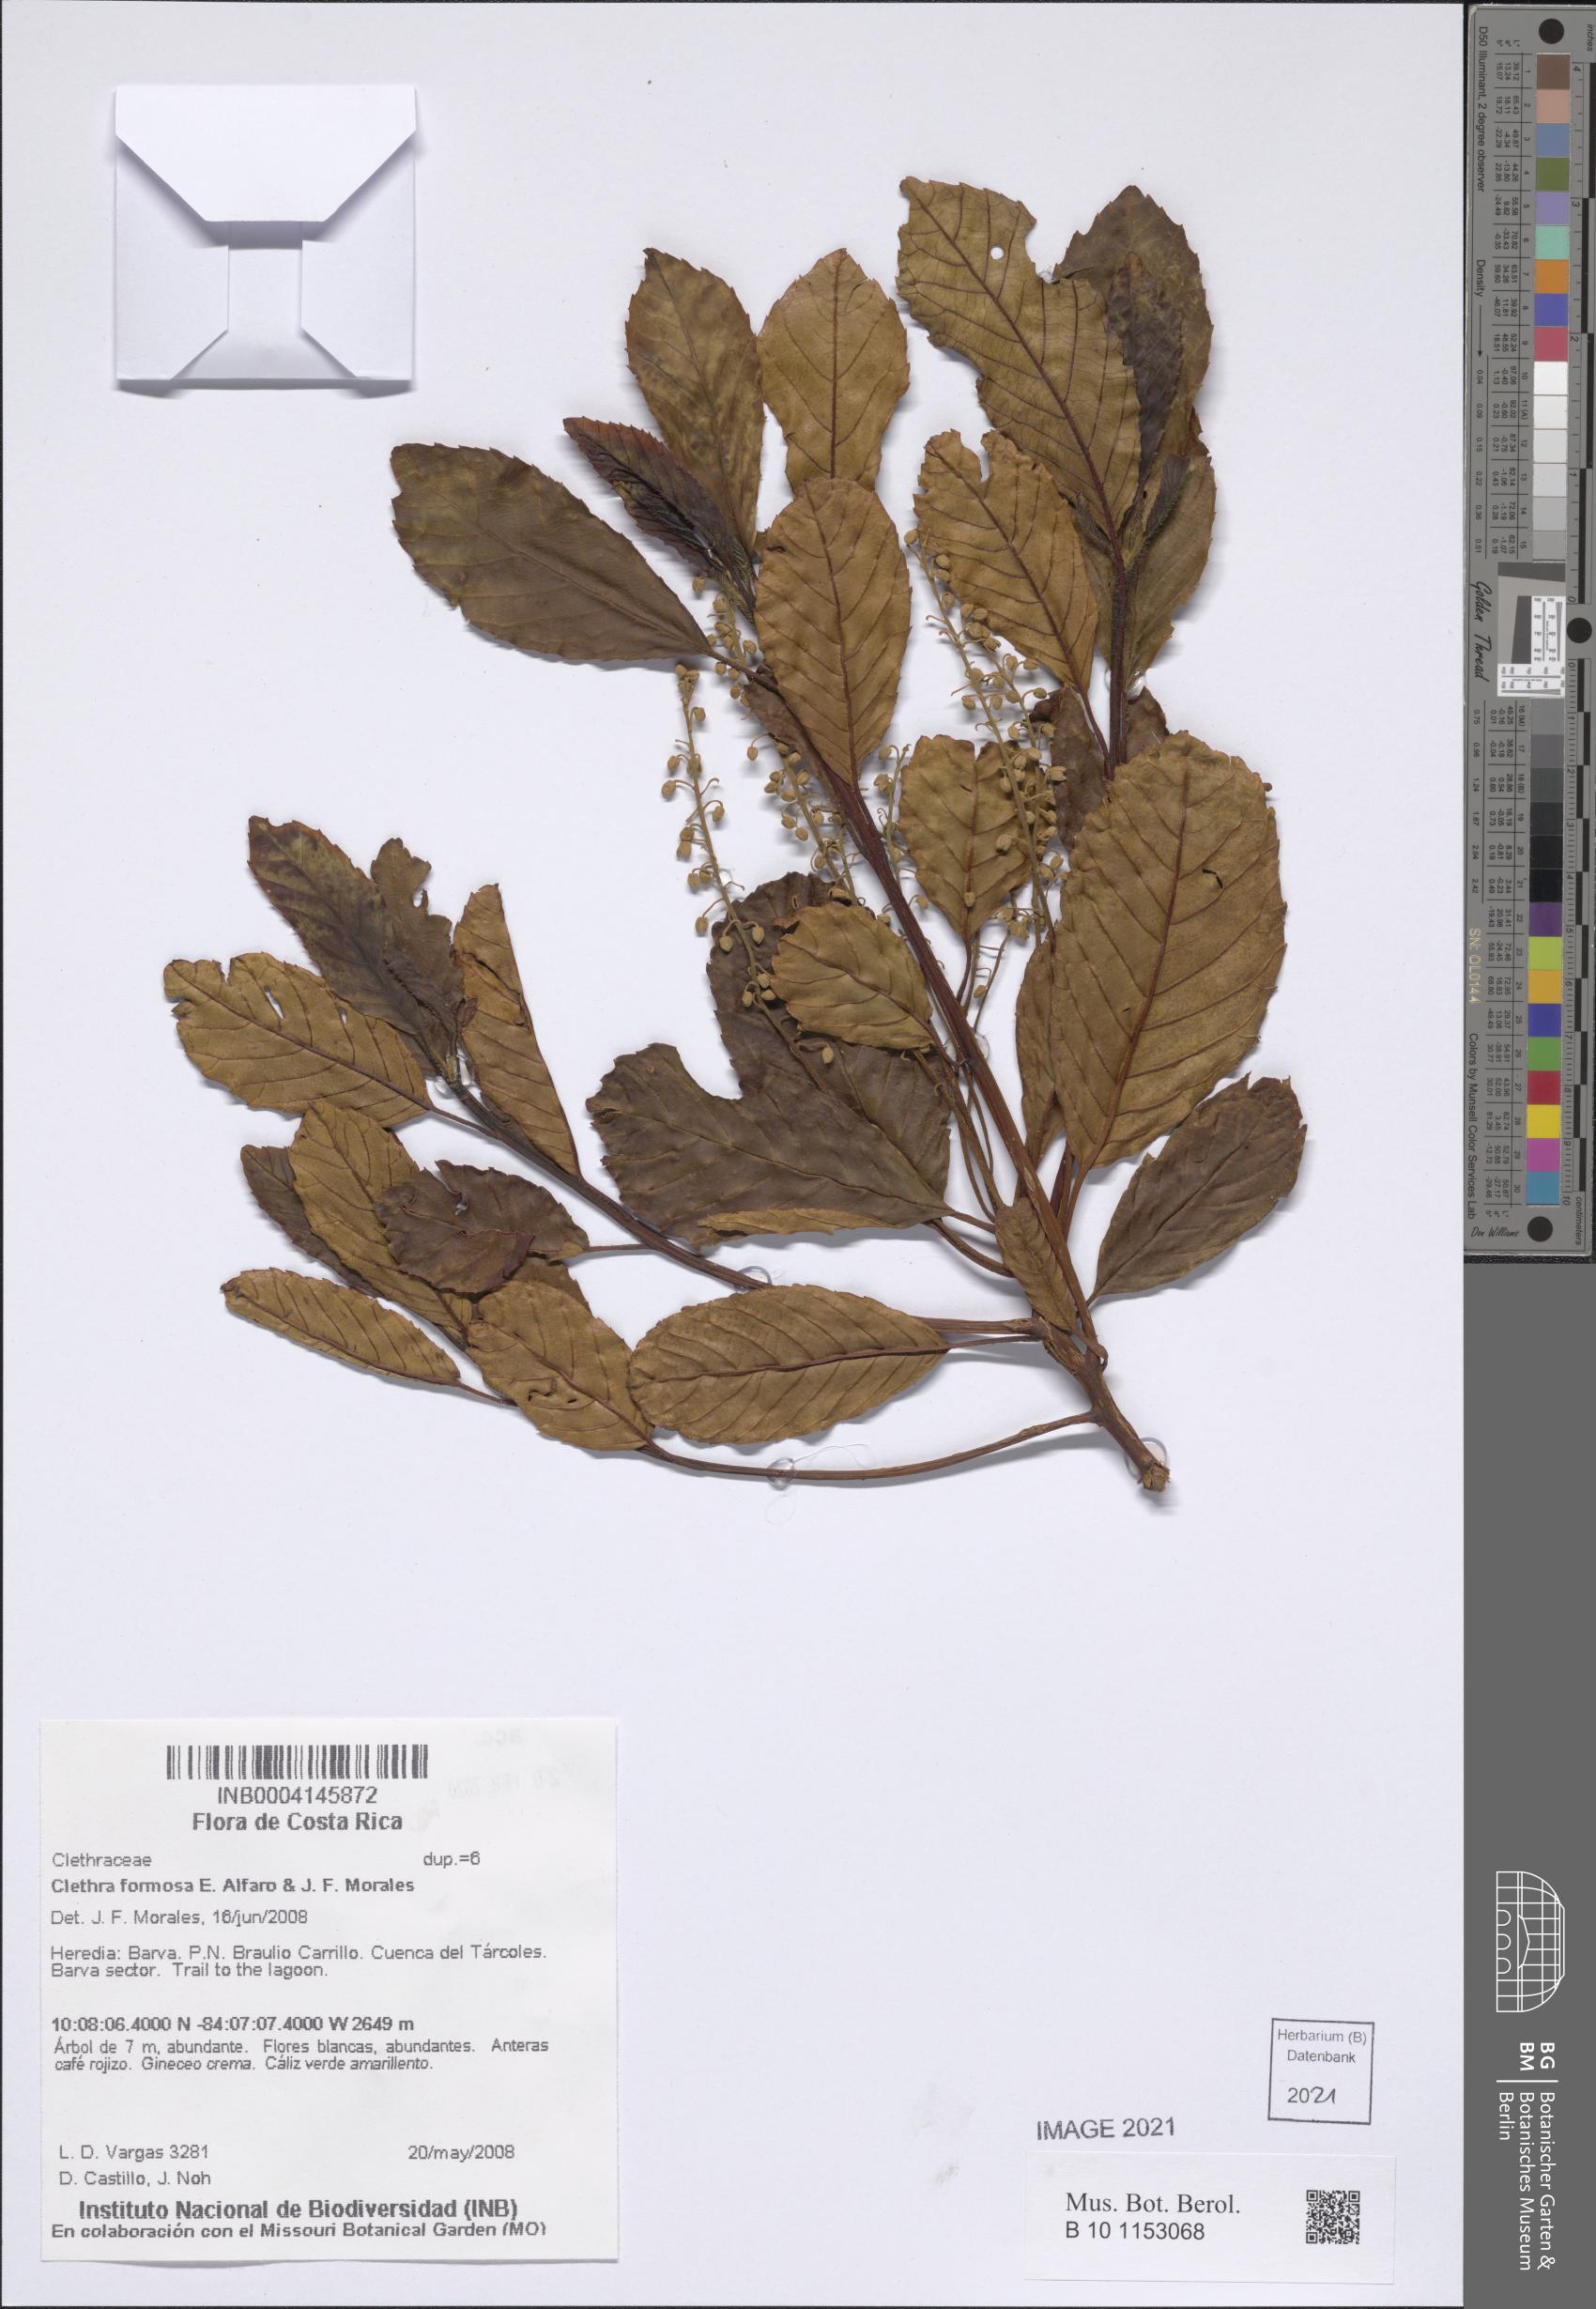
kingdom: Plantae
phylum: Tracheophyta
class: Magnoliopsida
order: Ericales
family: Clethraceae
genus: Clethra
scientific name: Clethra formosa
